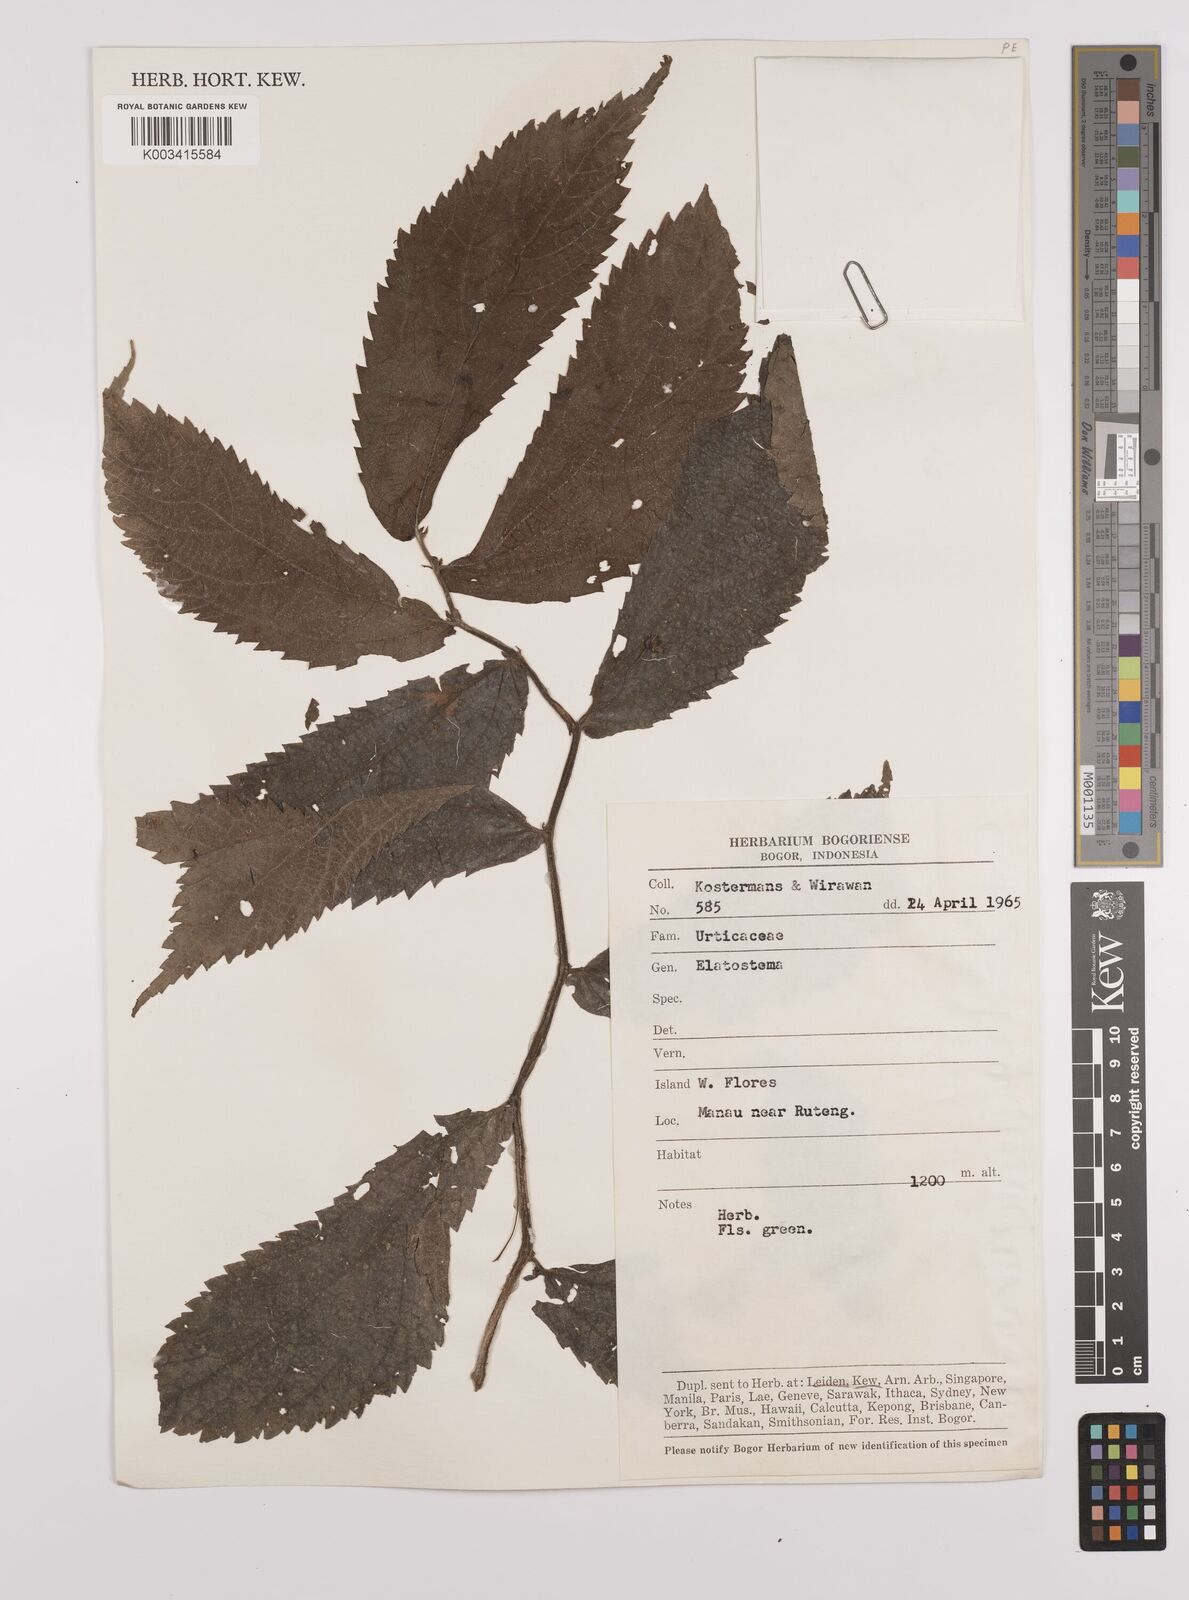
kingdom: Plantae
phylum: Tracheophyta
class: Magnoliopsida
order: Rosales
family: Urticaceae
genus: Elatostema
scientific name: Elatostema
